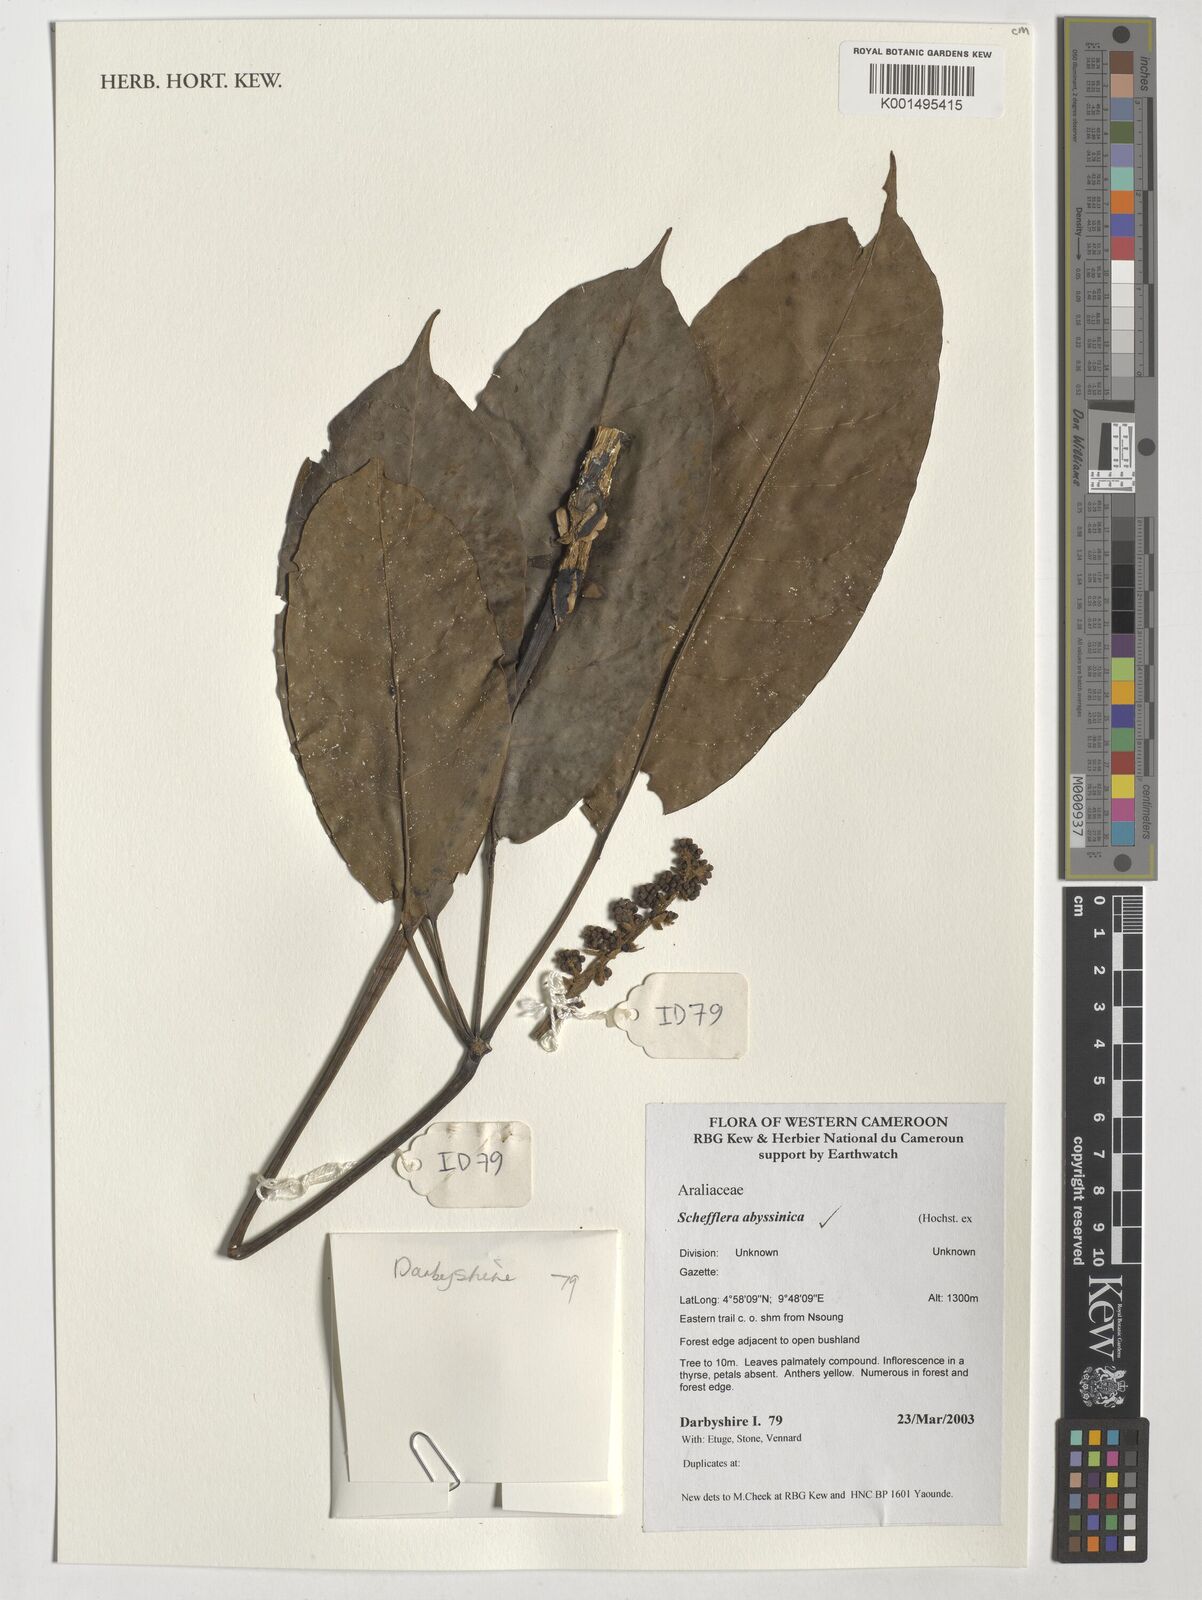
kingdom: Plantae
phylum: Tracheophyta
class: Magnoliopsida
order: Apiales
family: Araliaceae
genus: Astropanax
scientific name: Astropanax abyssinicum
